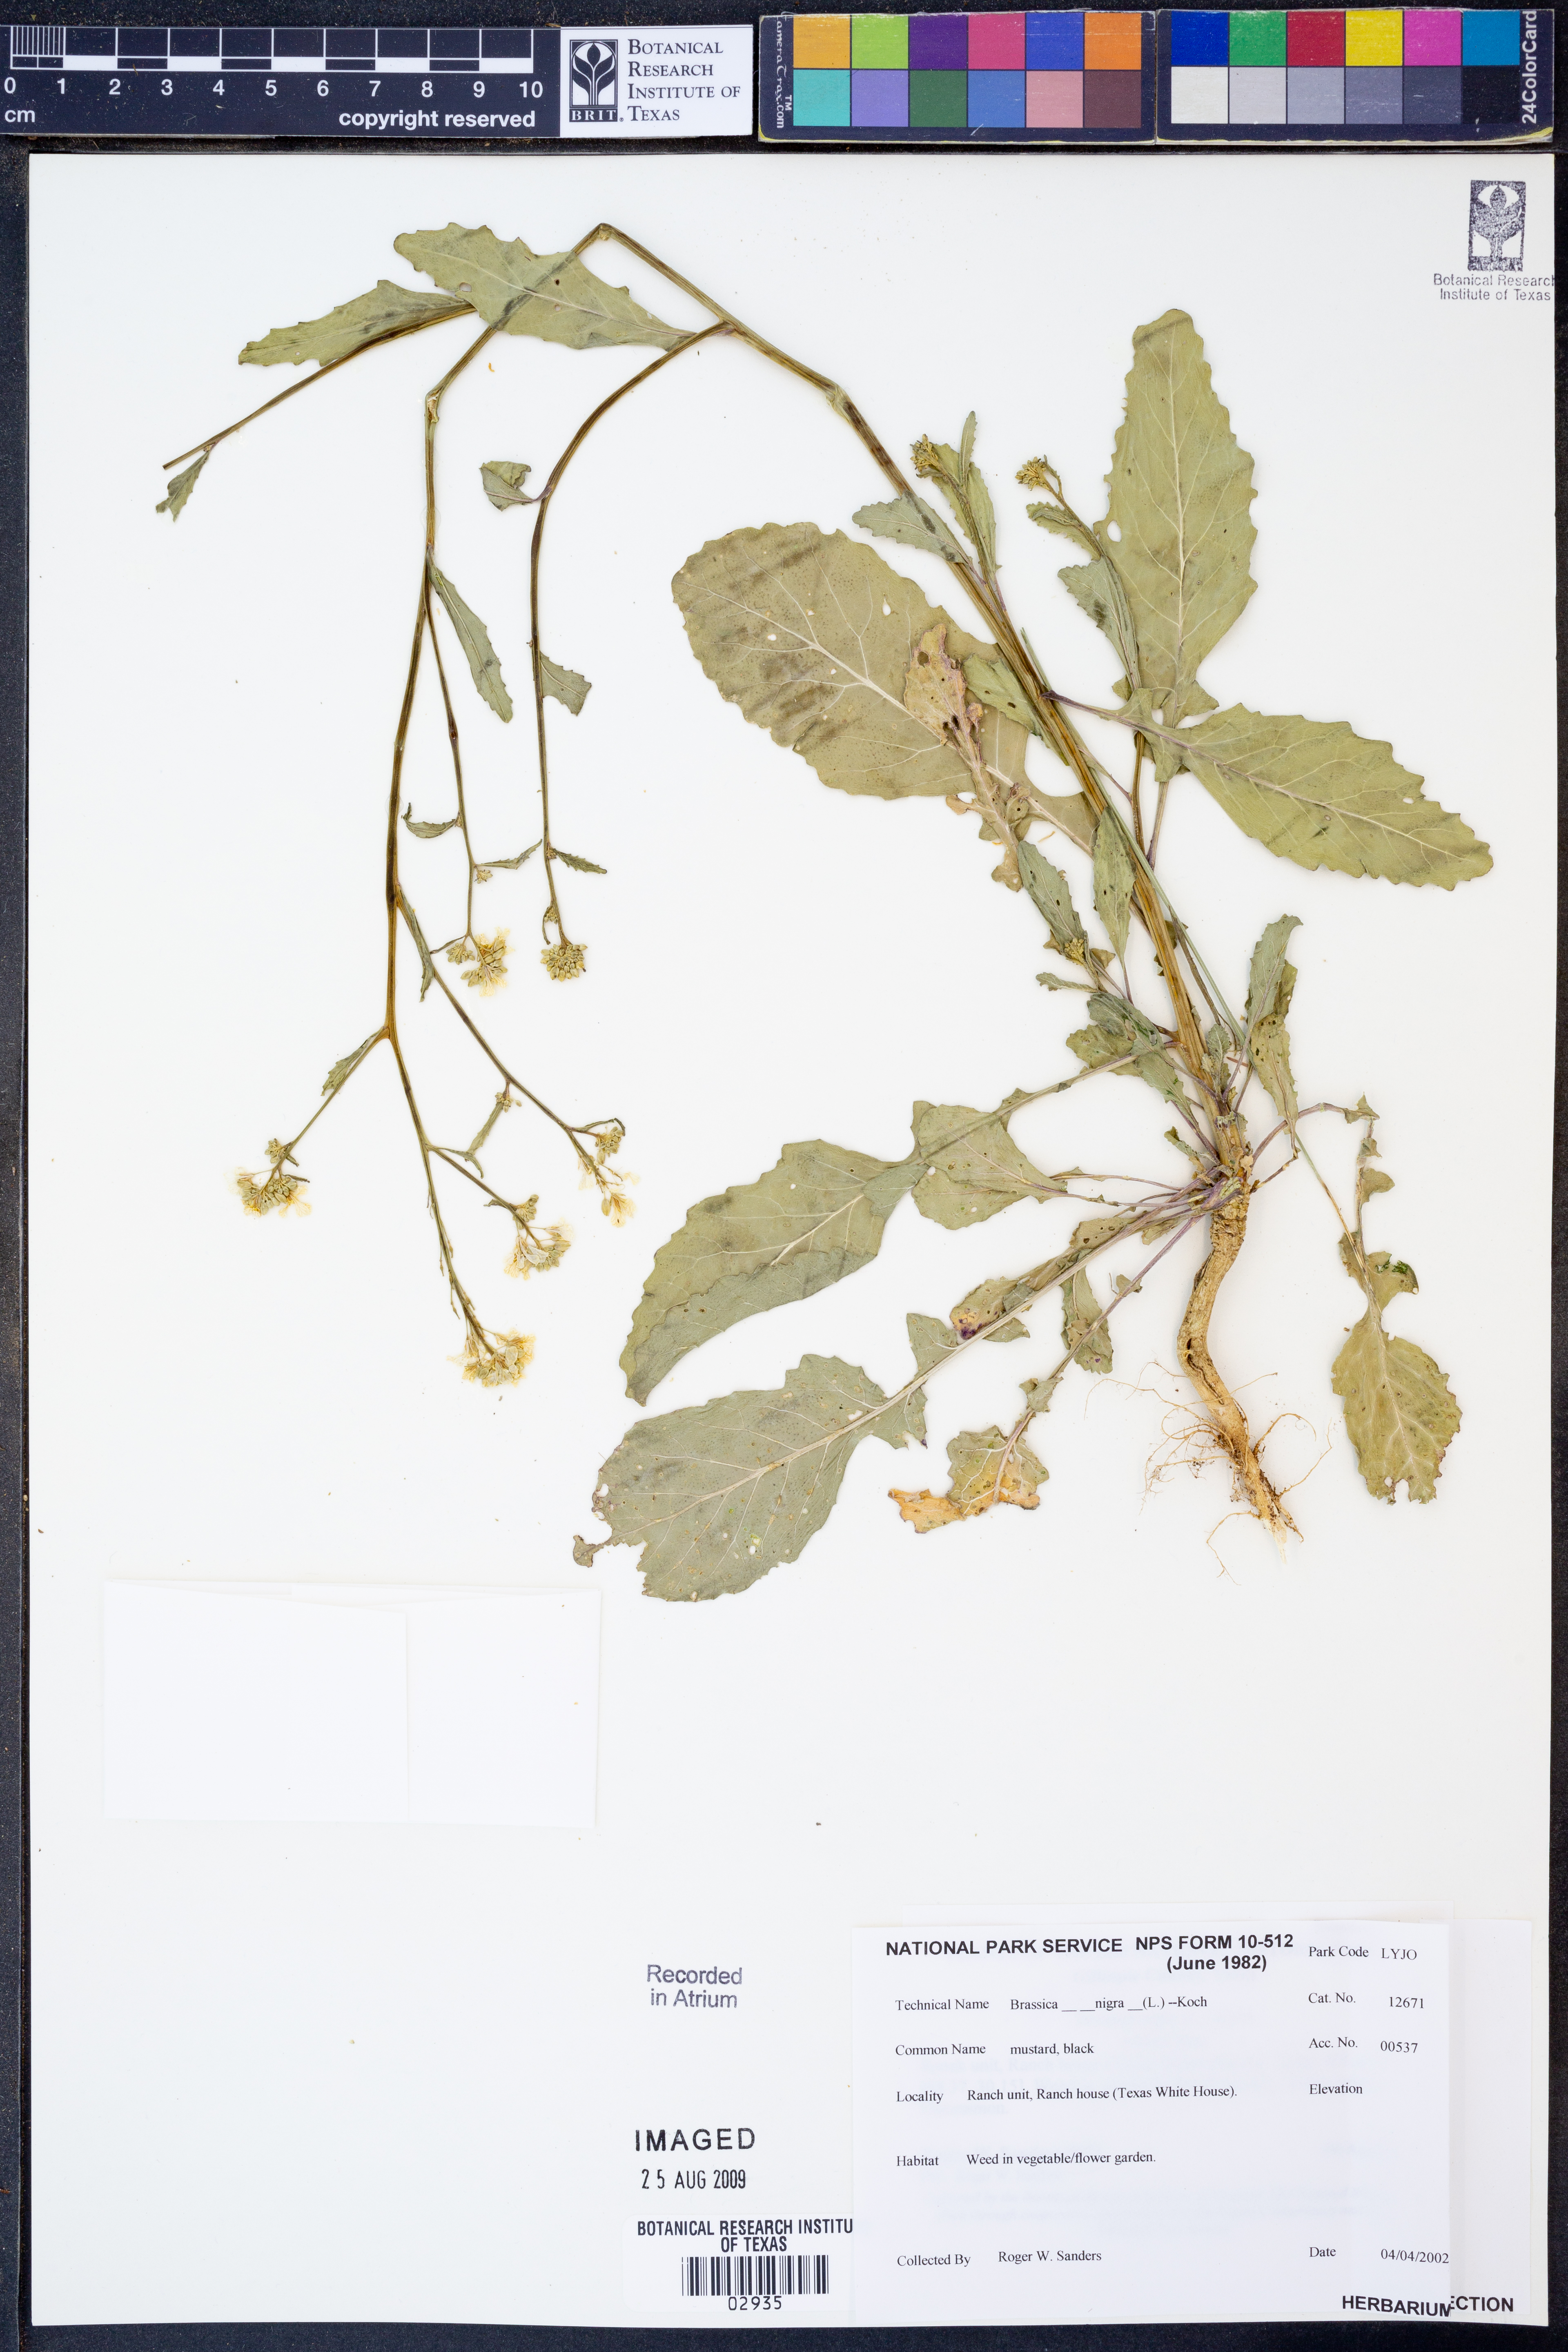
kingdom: Plantae
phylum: Tracheophyta
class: Magnoliopsida
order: Brassicales
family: Brassicaceae
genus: Brassica
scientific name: Brassica nigra
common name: Black mustard
